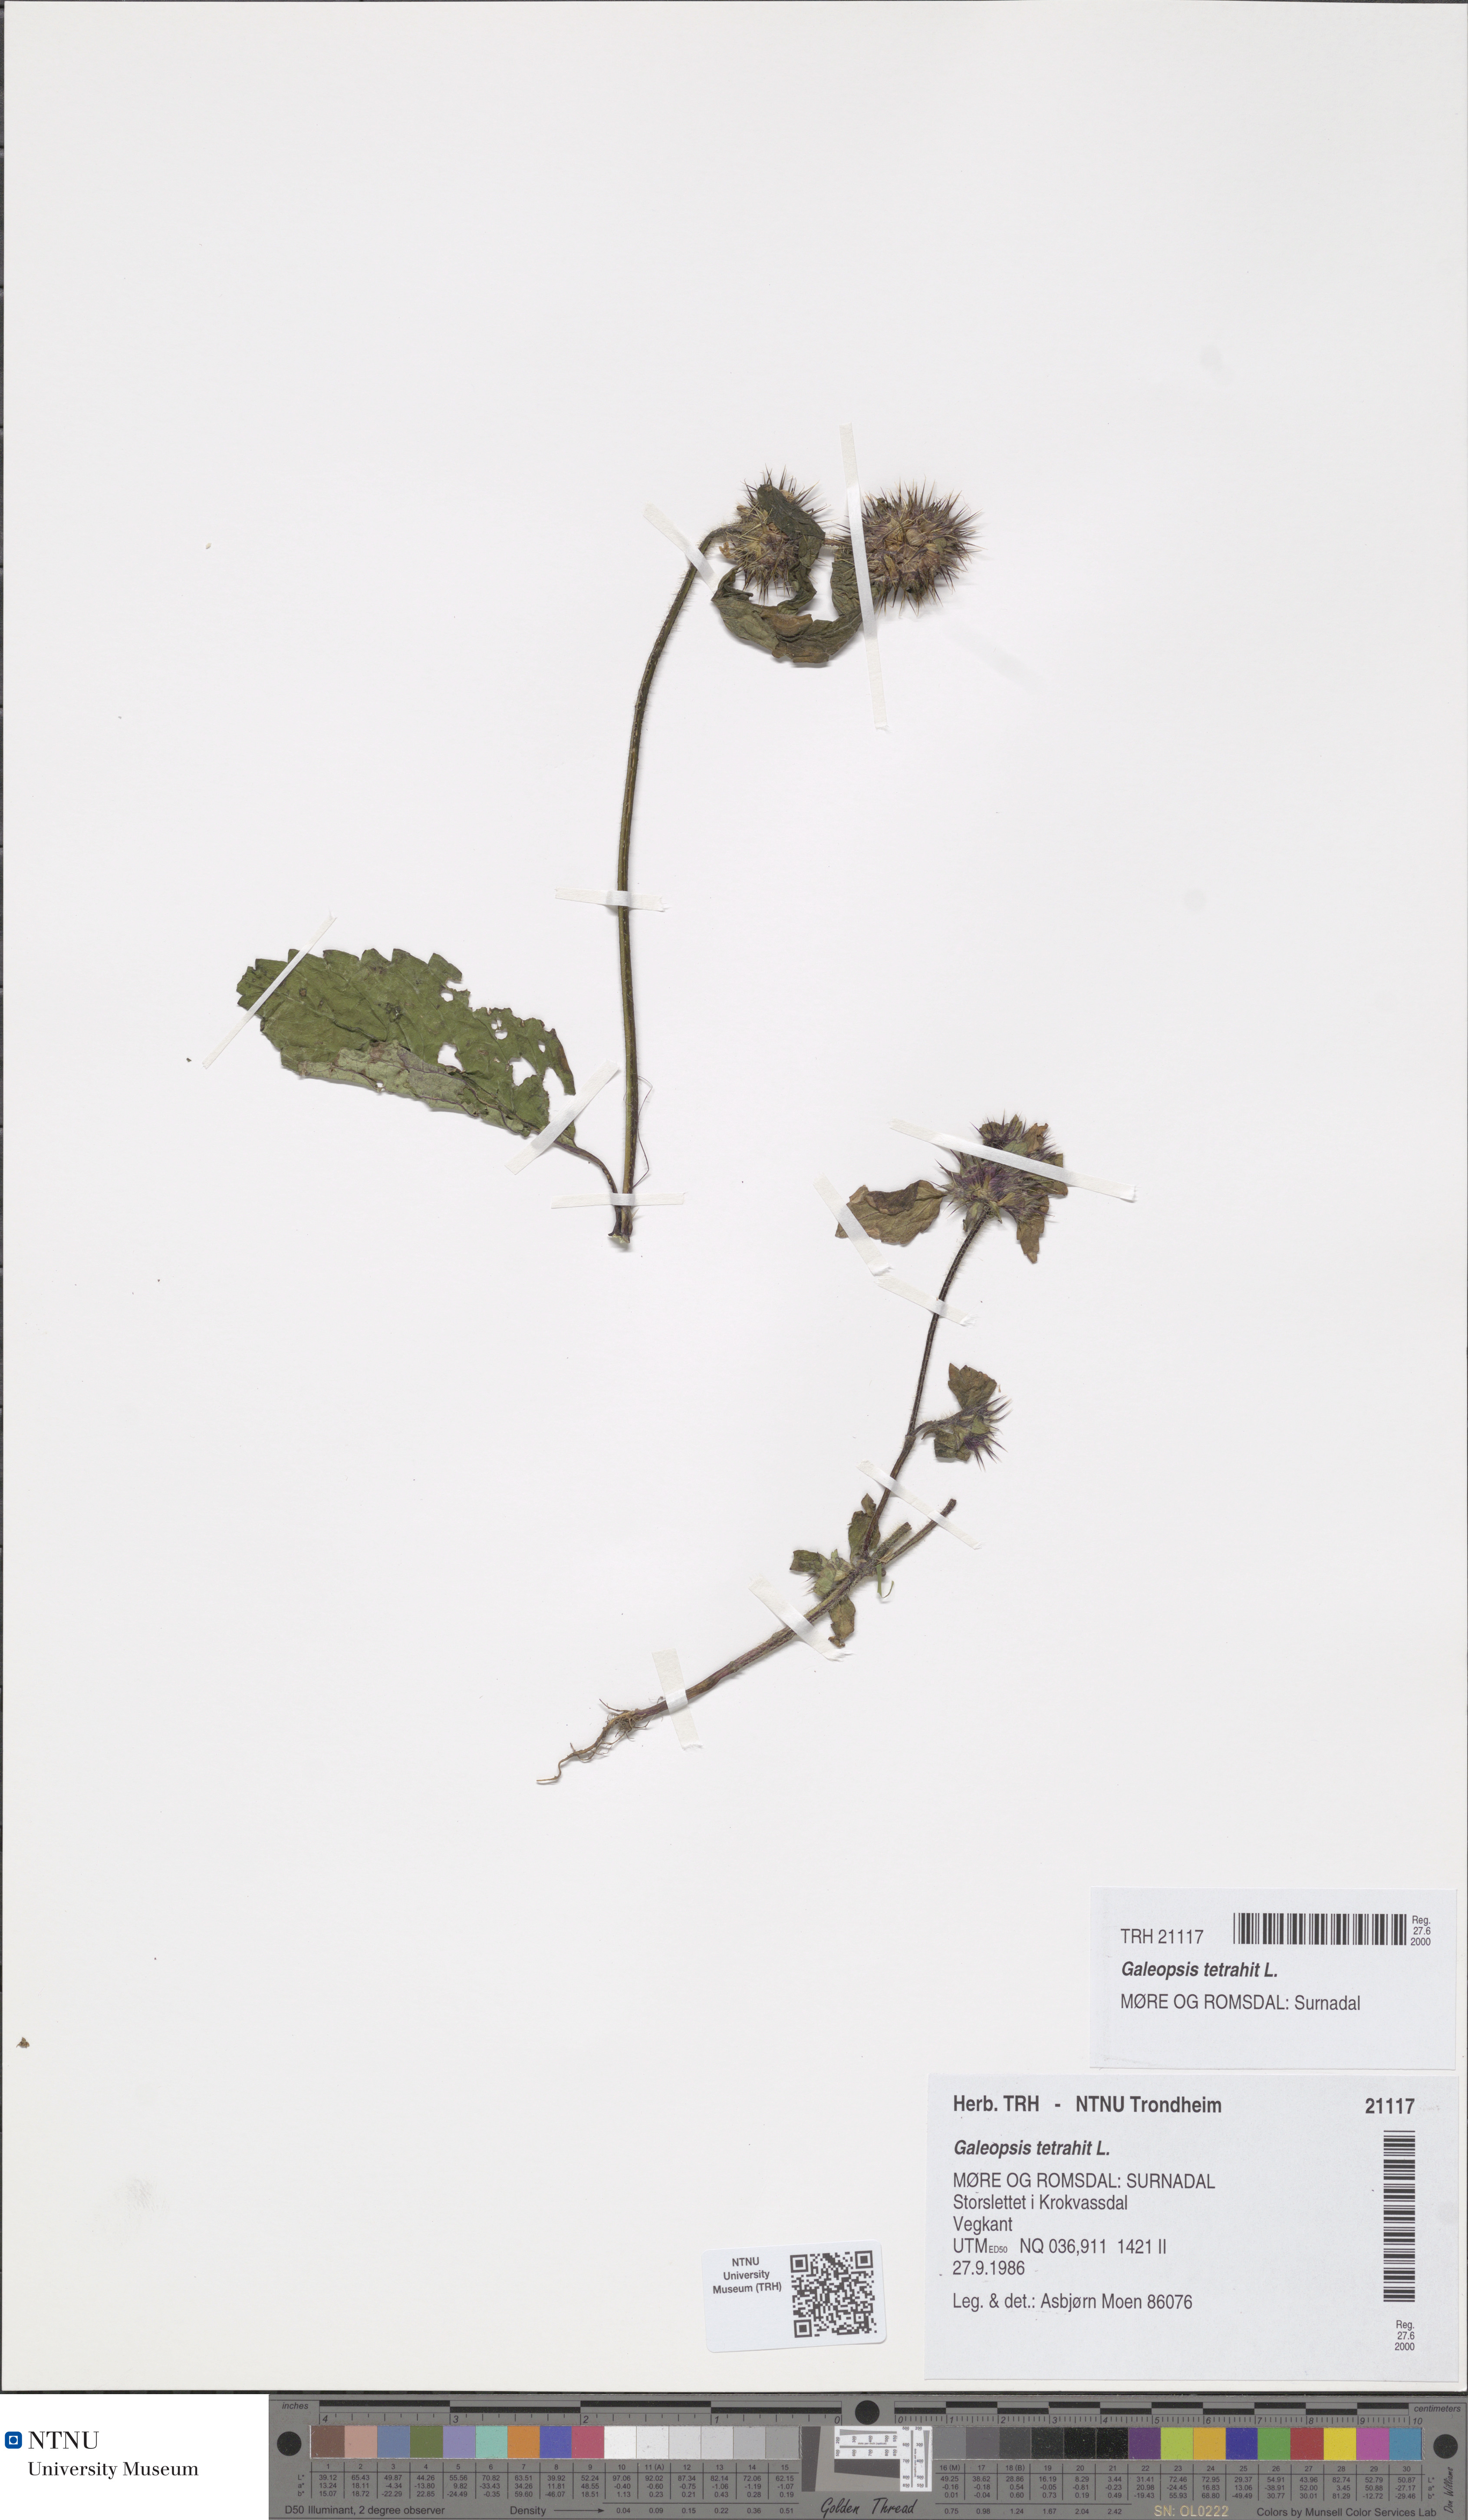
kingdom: Plantae
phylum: Tracheophyta
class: Magnoliopsida
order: Lamiales
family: Lamiaceae
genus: Galeopsis
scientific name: Galeopsis tetrahit
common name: Common hemp-nettle
